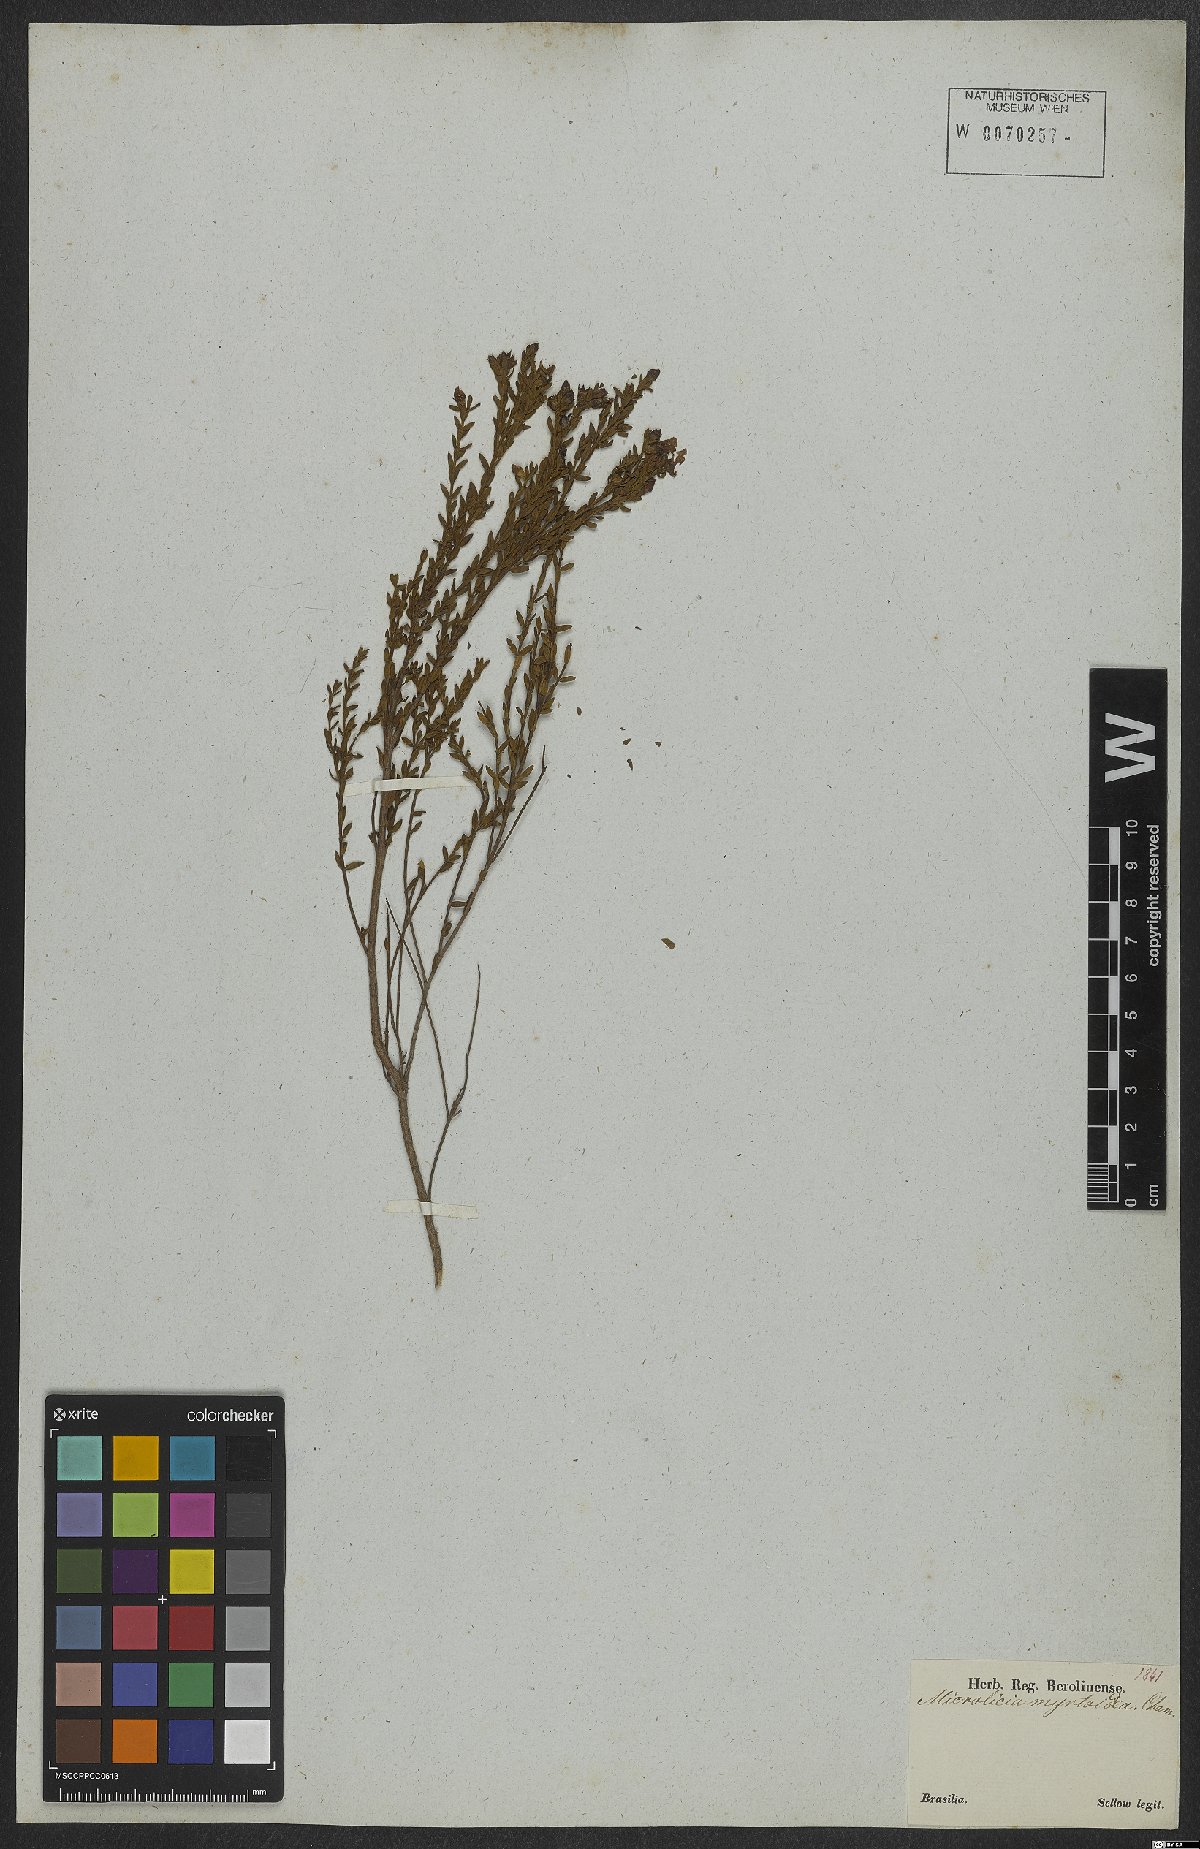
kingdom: Plantae
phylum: Tracheophyta
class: Magnoliopsida
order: Myrtales
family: Melastomataceae
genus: Microlicia
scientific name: Microlicia myrtoidea
